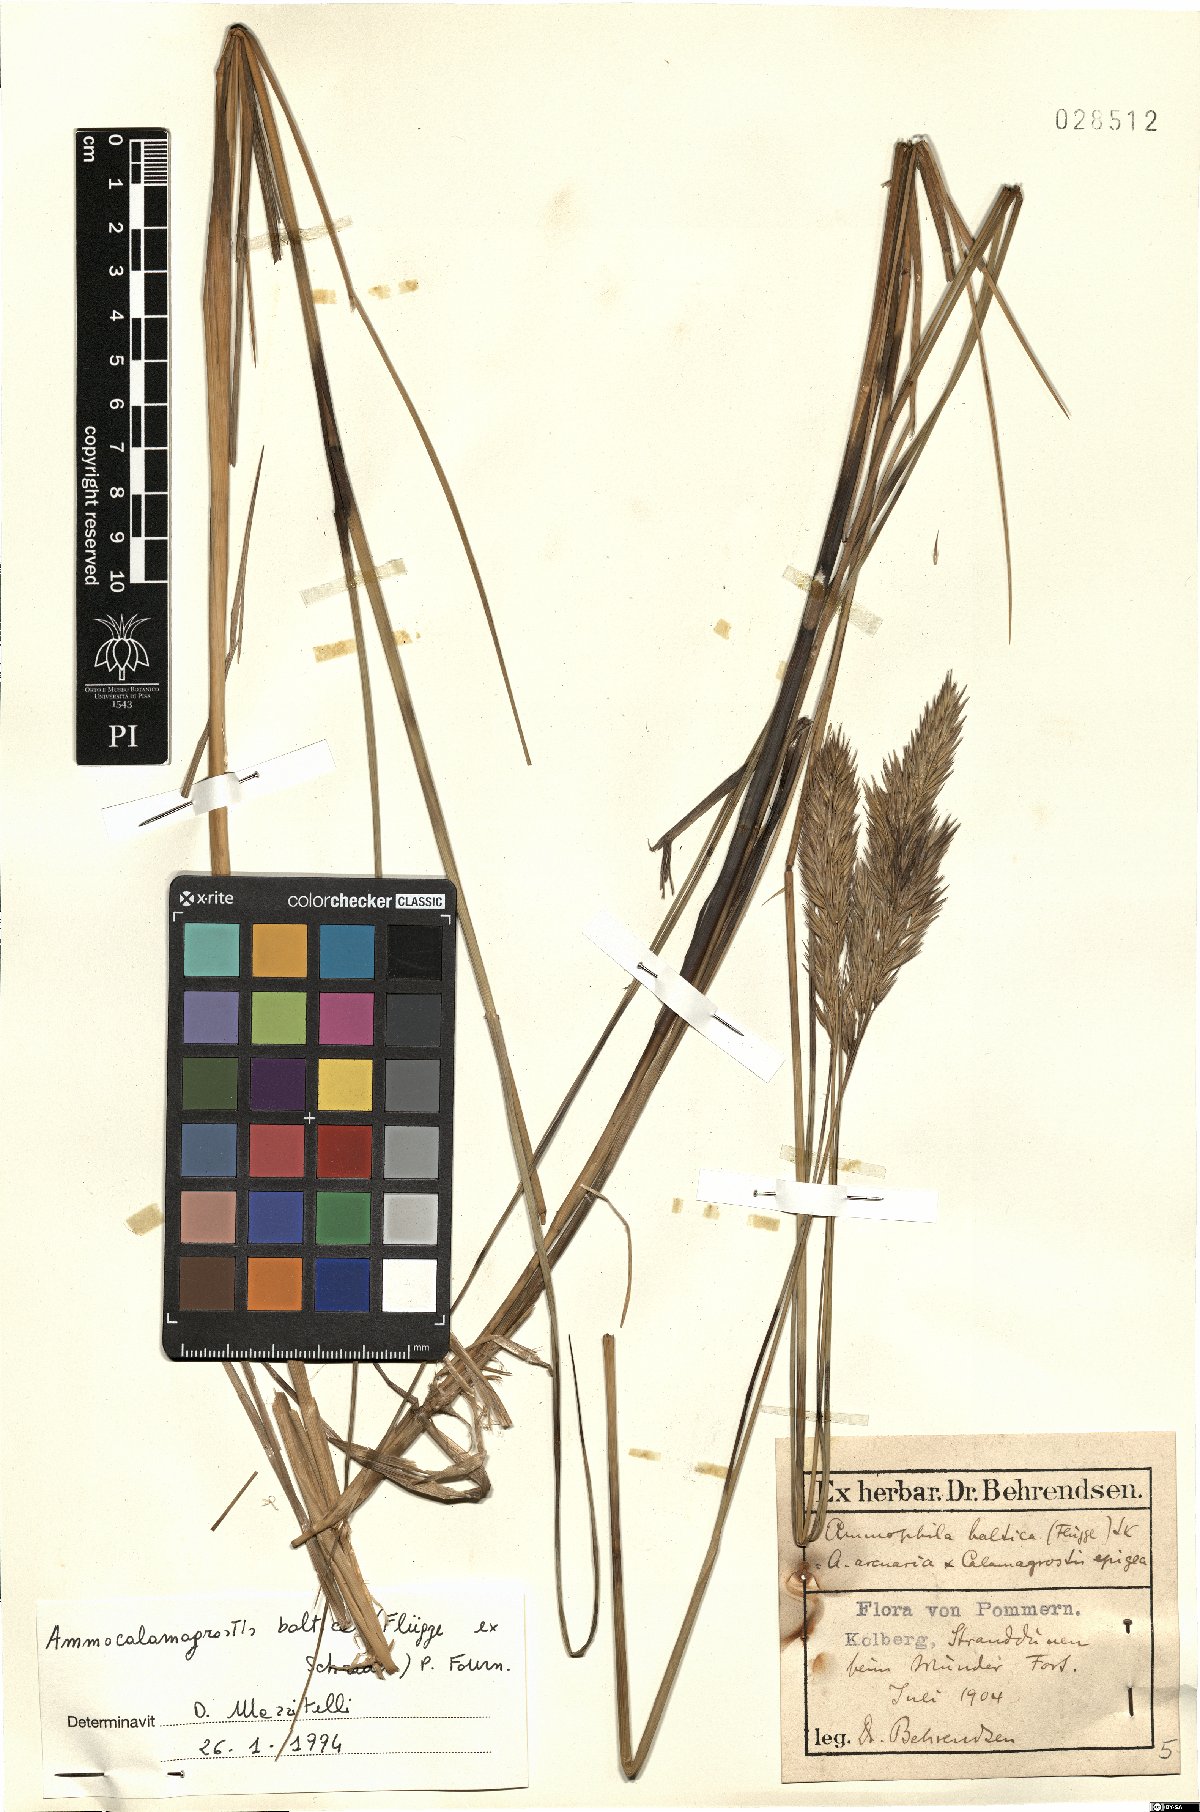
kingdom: Plantae
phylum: Tracheophyta
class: Liliopsida
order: Poales
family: Poaceae
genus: Calamagrostis
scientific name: Calamagrostis baltica
